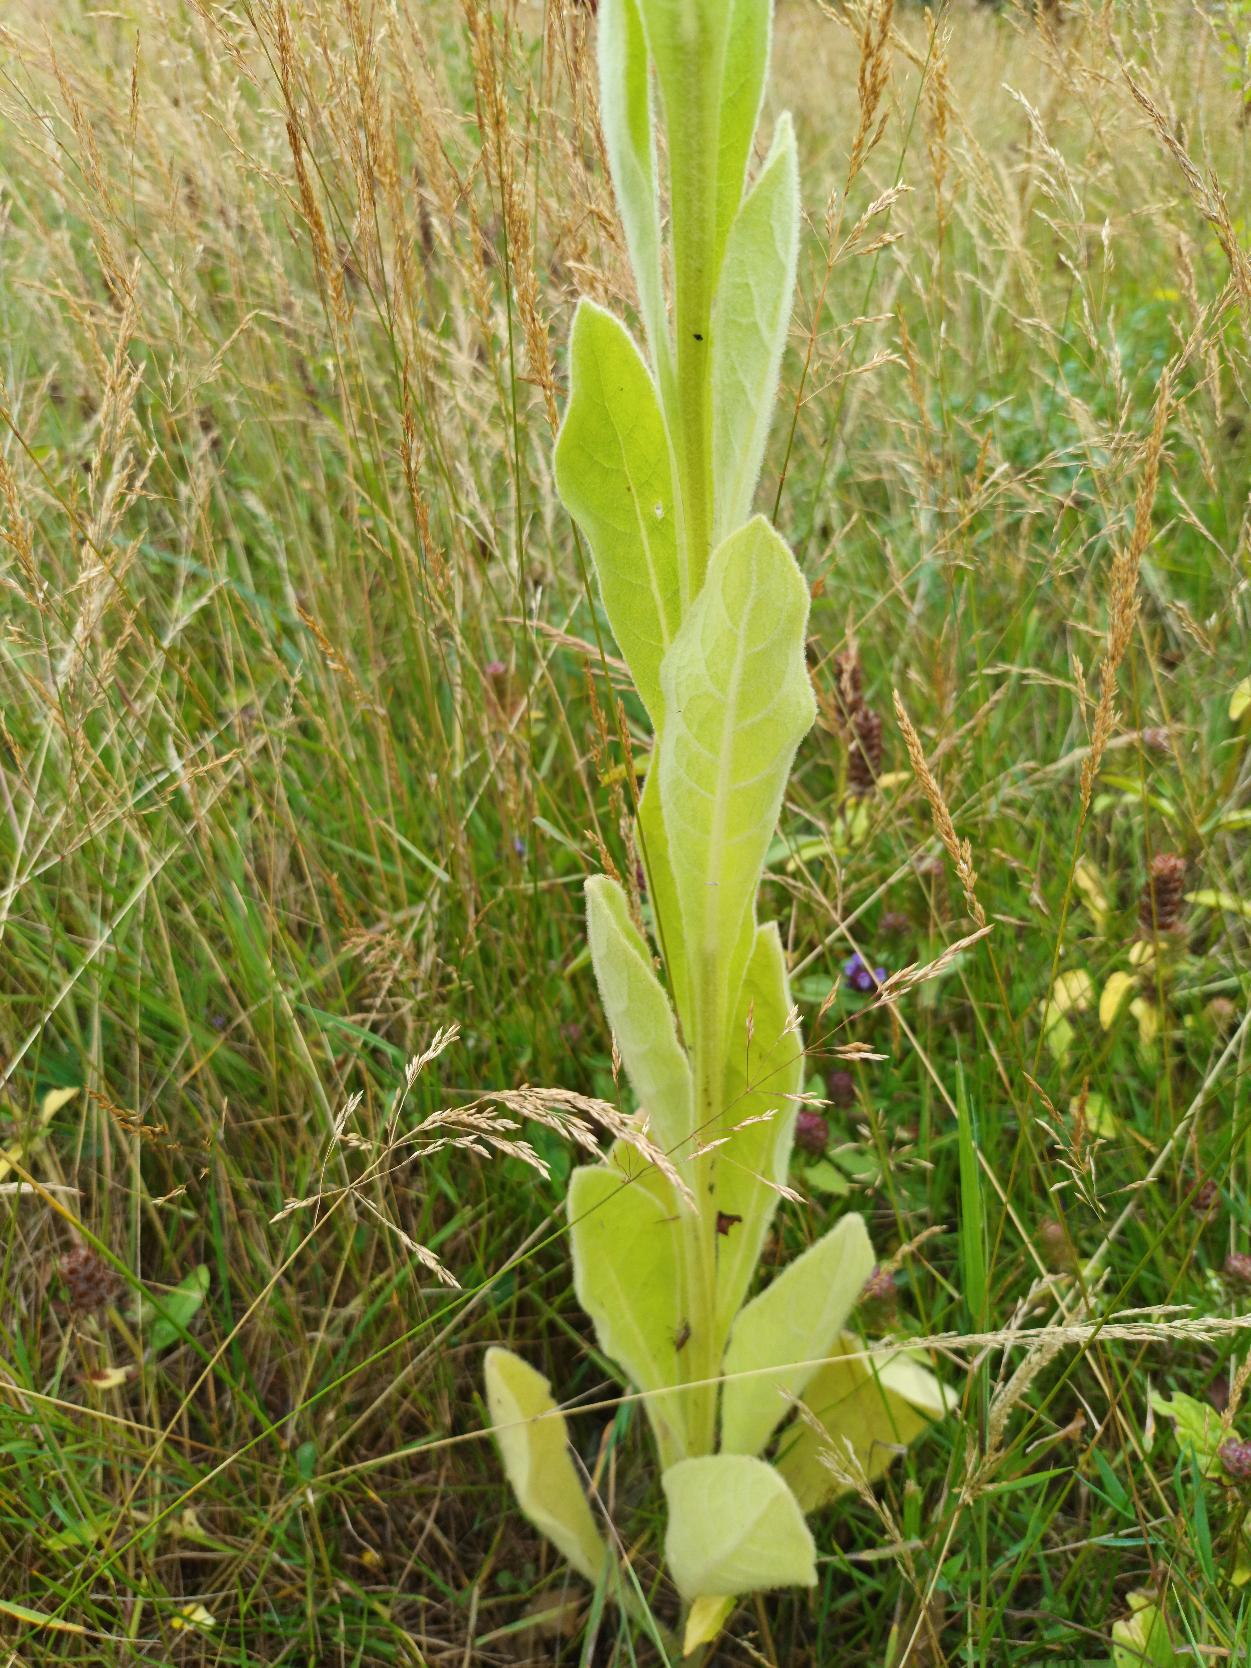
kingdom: Plantae
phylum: Tracheophyta
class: Magnoliopsida
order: Lamiales
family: Scrophulariaceae
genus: Verbascum
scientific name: Verbascum thapsus
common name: Filtbladet kongelys
